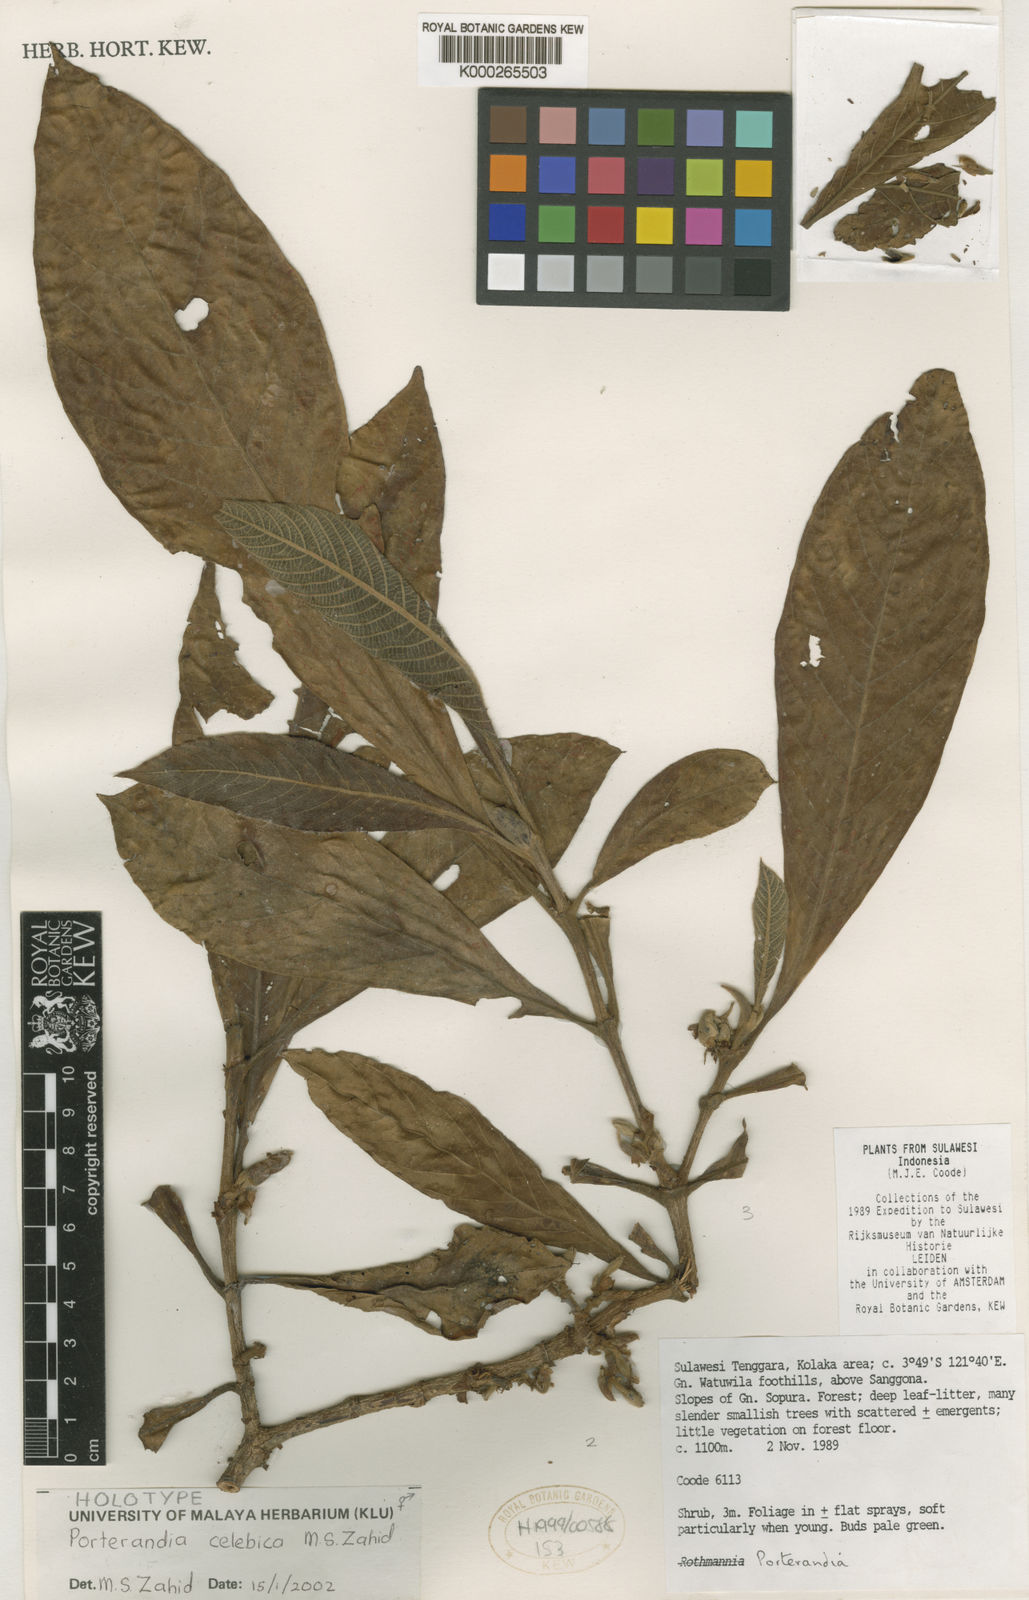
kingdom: Plantae
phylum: Tracheophyta
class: Magnoliopsida
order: Gentianales
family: Rubiaceae
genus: Porterandia
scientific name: Porterandia celebica
